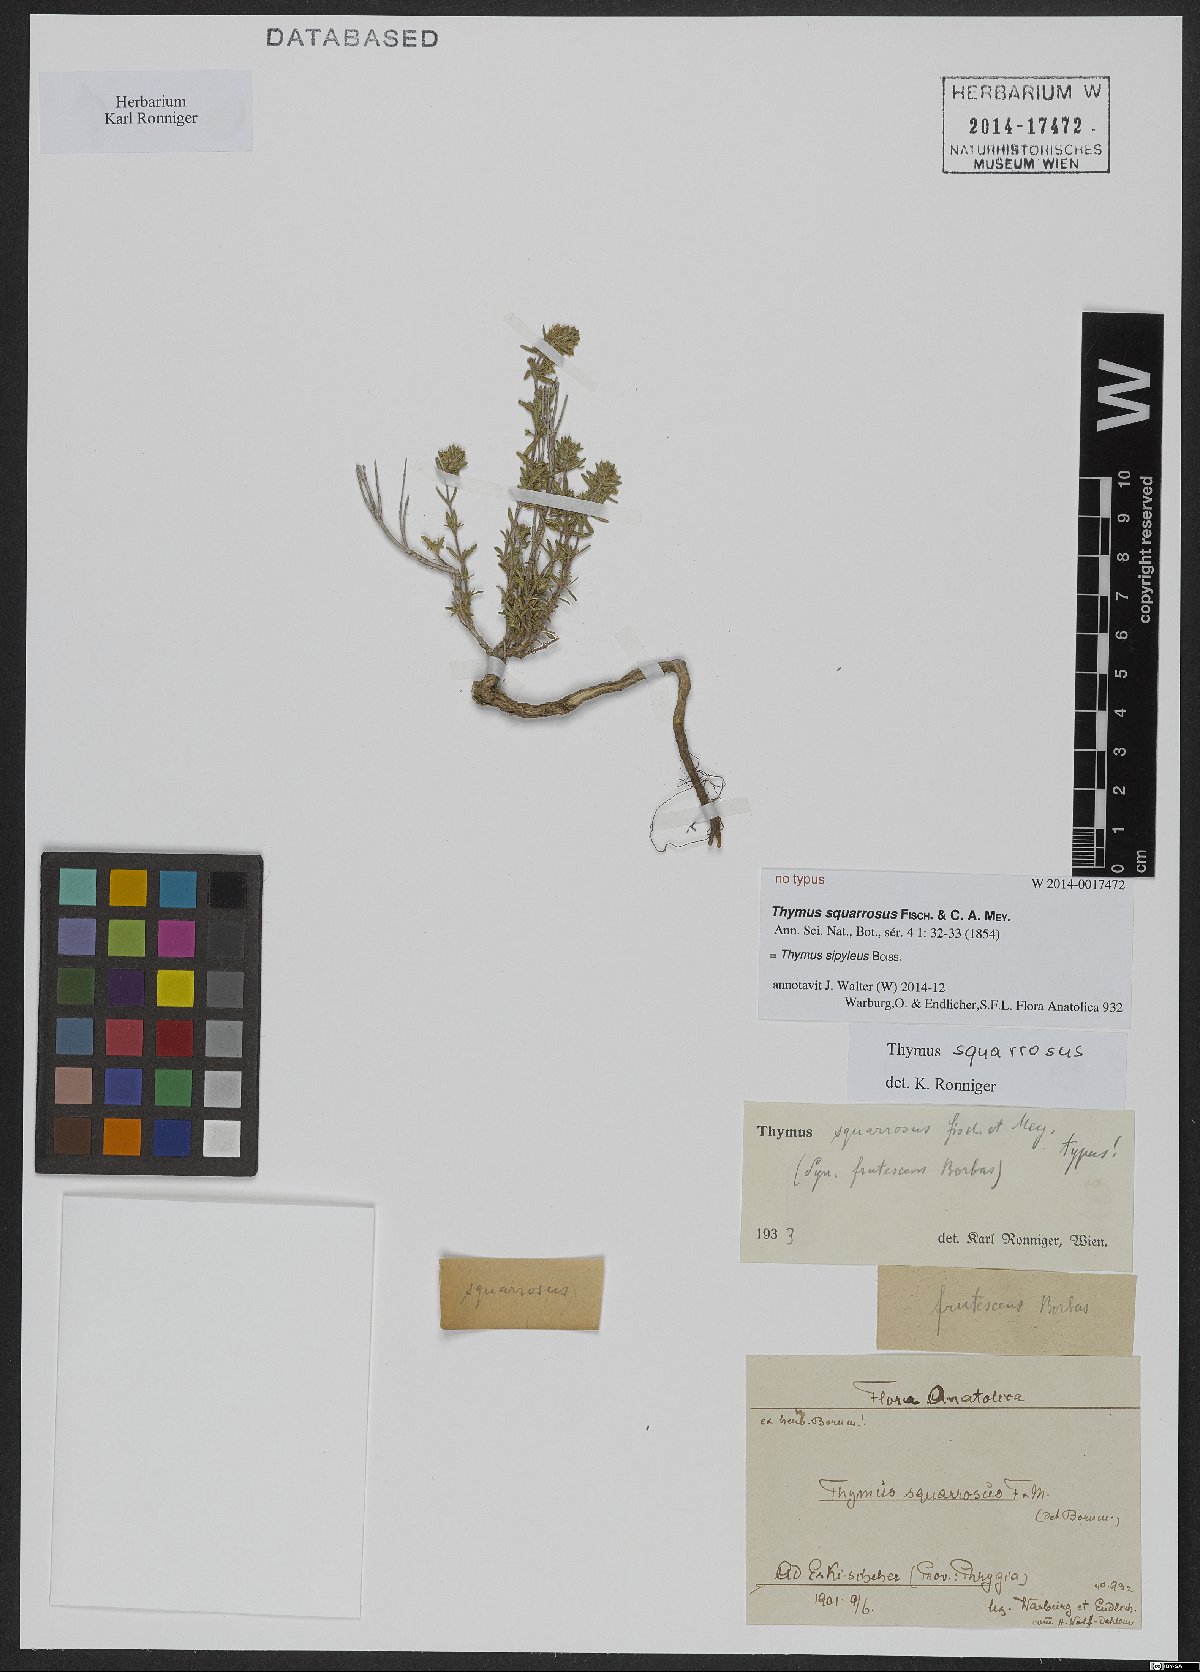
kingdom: Plantae
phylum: Tracheophyta
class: Magnoliopsida
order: Lamiales
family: Lamiaceae
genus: Thymus
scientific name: Thymus sipyleus
